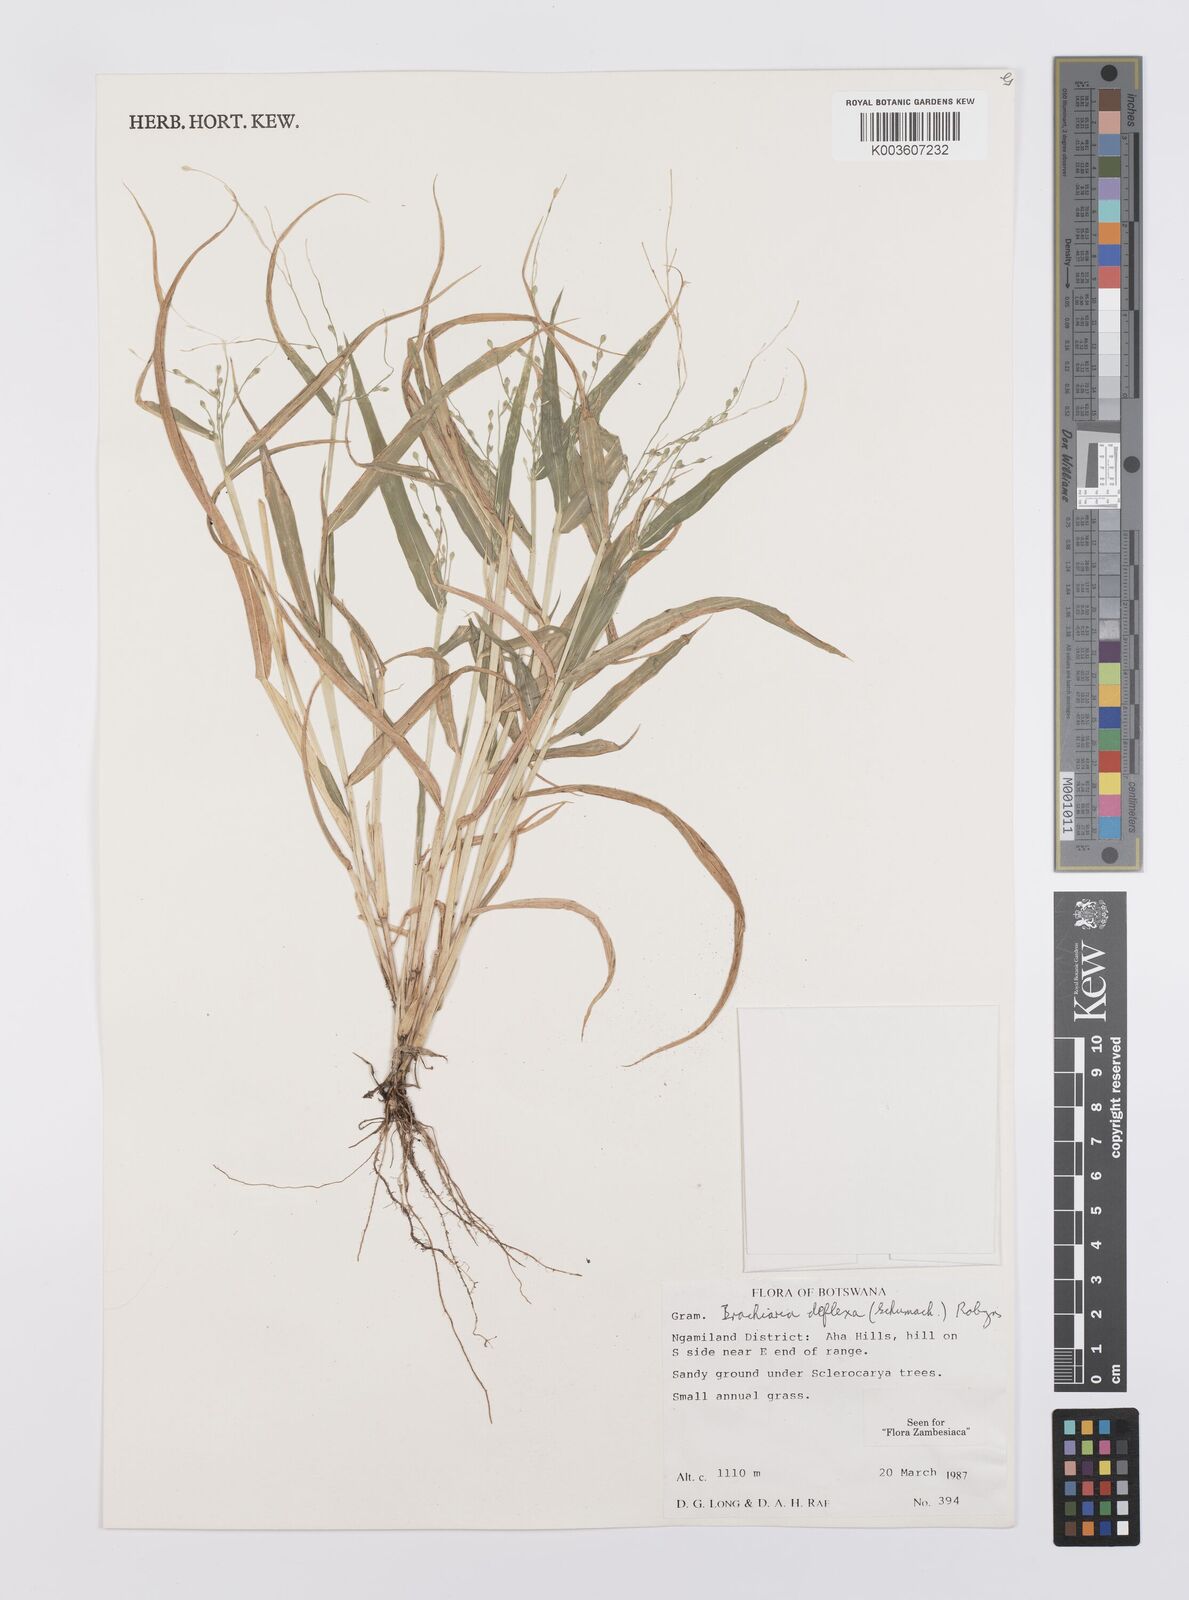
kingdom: Plantae
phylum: Tracheophyta
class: Liliopsida
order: Poales
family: Poaceae
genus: Urochloa
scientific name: Urochloa deflexa
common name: Guinea millet
